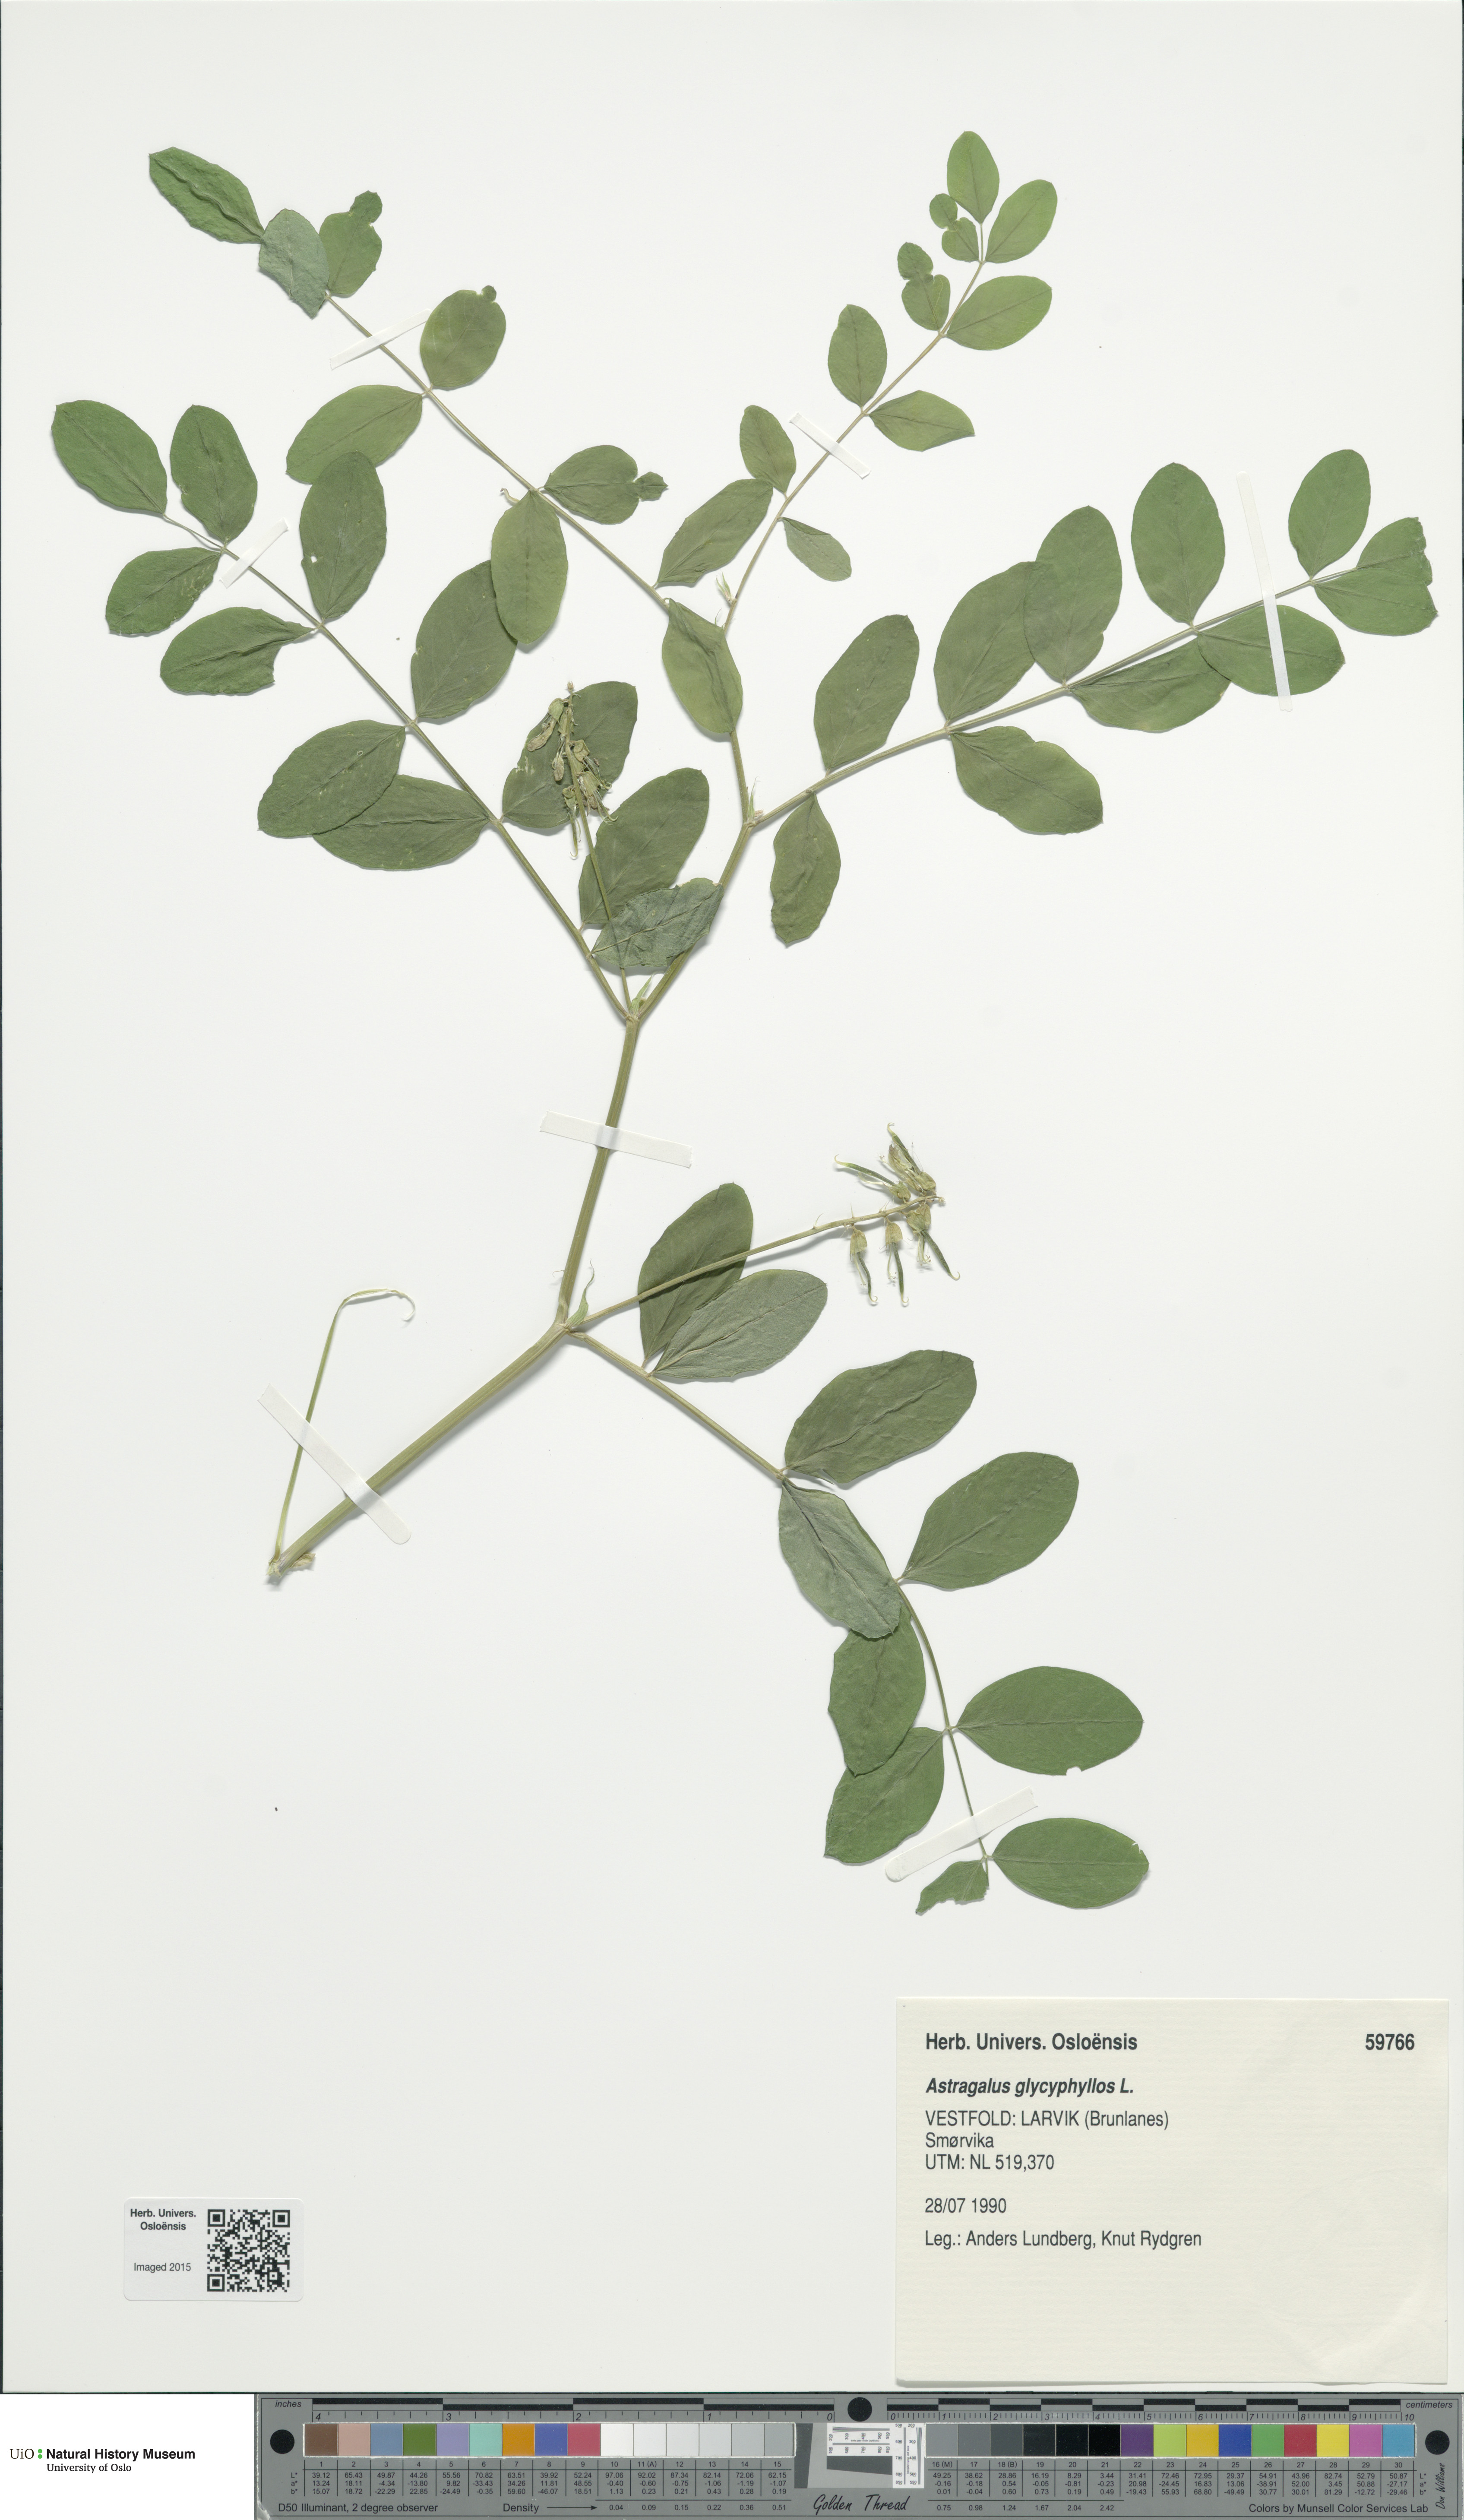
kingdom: Plantae
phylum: Tracheophyta
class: Magnoliopsida
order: Fabales
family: Fabaceae
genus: Astragalus
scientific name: Astragalus glycyphyllos
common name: Wild liquorice
